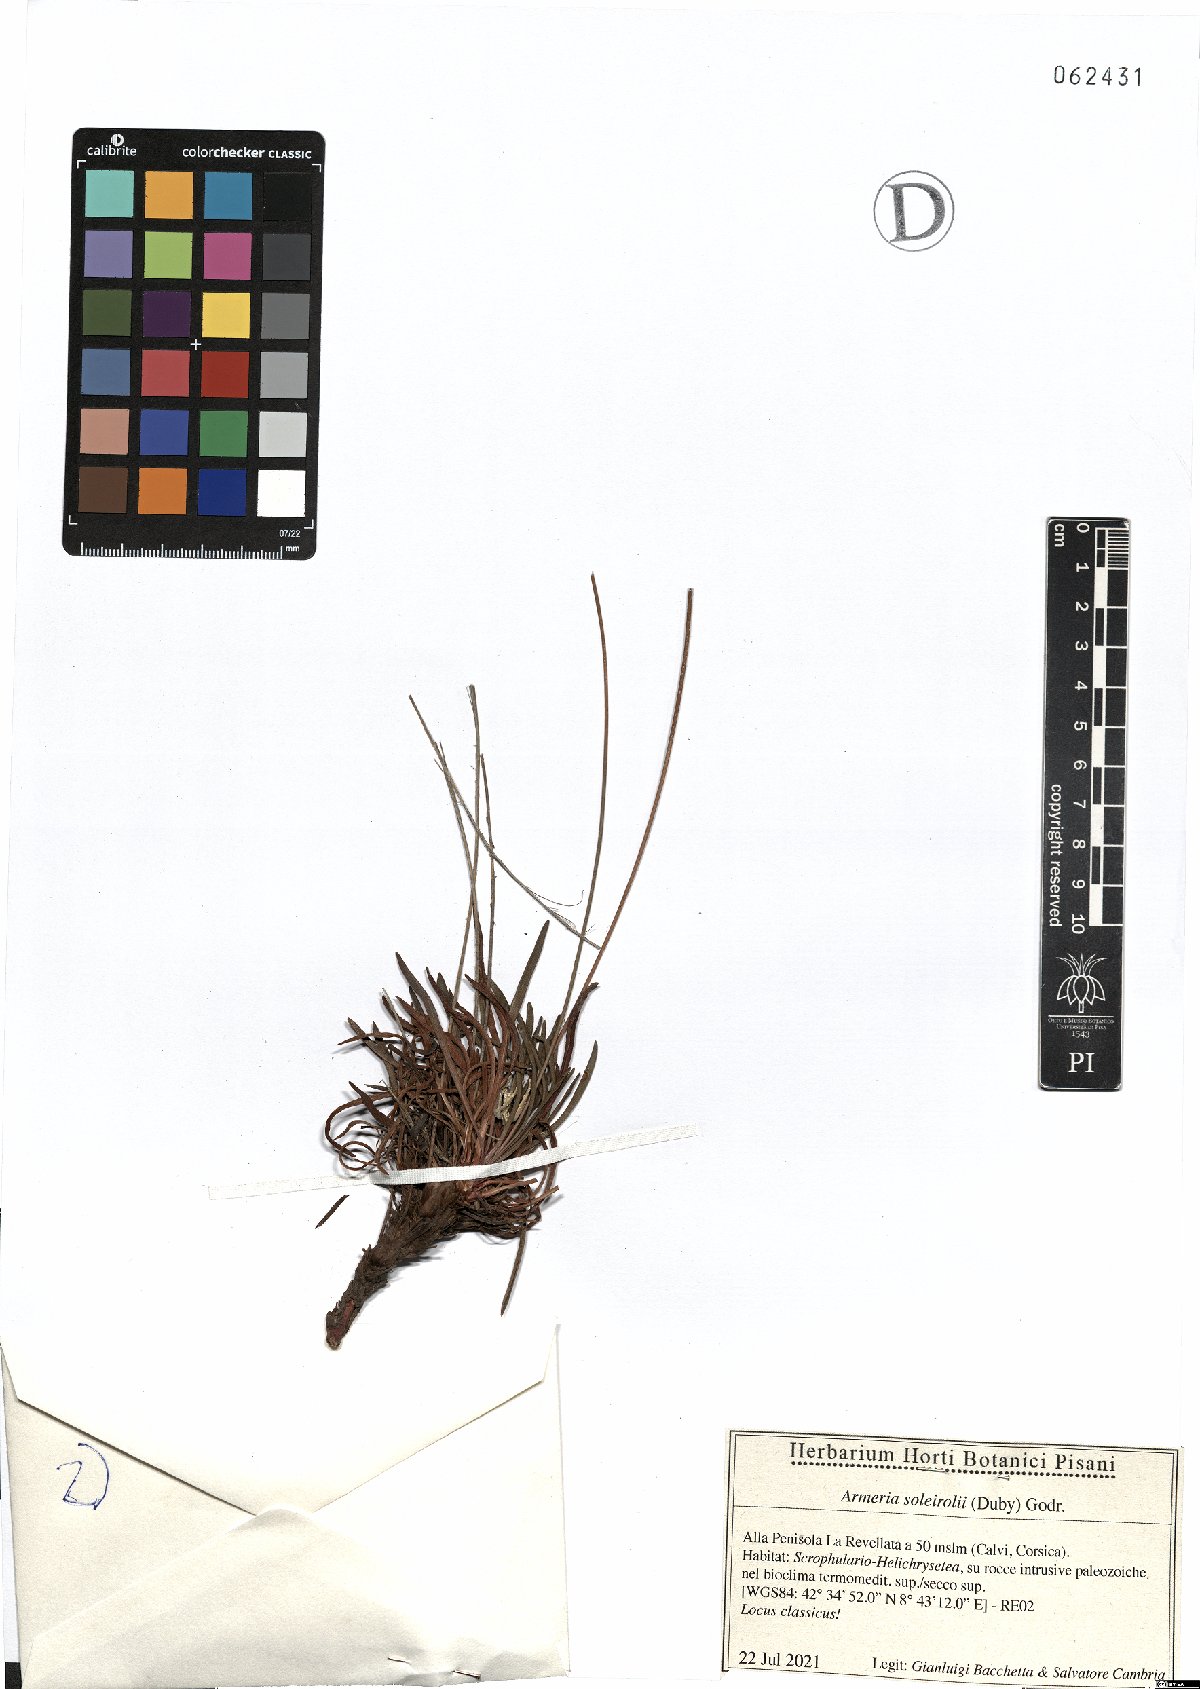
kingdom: Plantae
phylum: Tracheophyta
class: Magnoliopsida
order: Caryophyllales
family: Plumbaginaceae
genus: Armeria
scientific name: Armeria soleirolii
